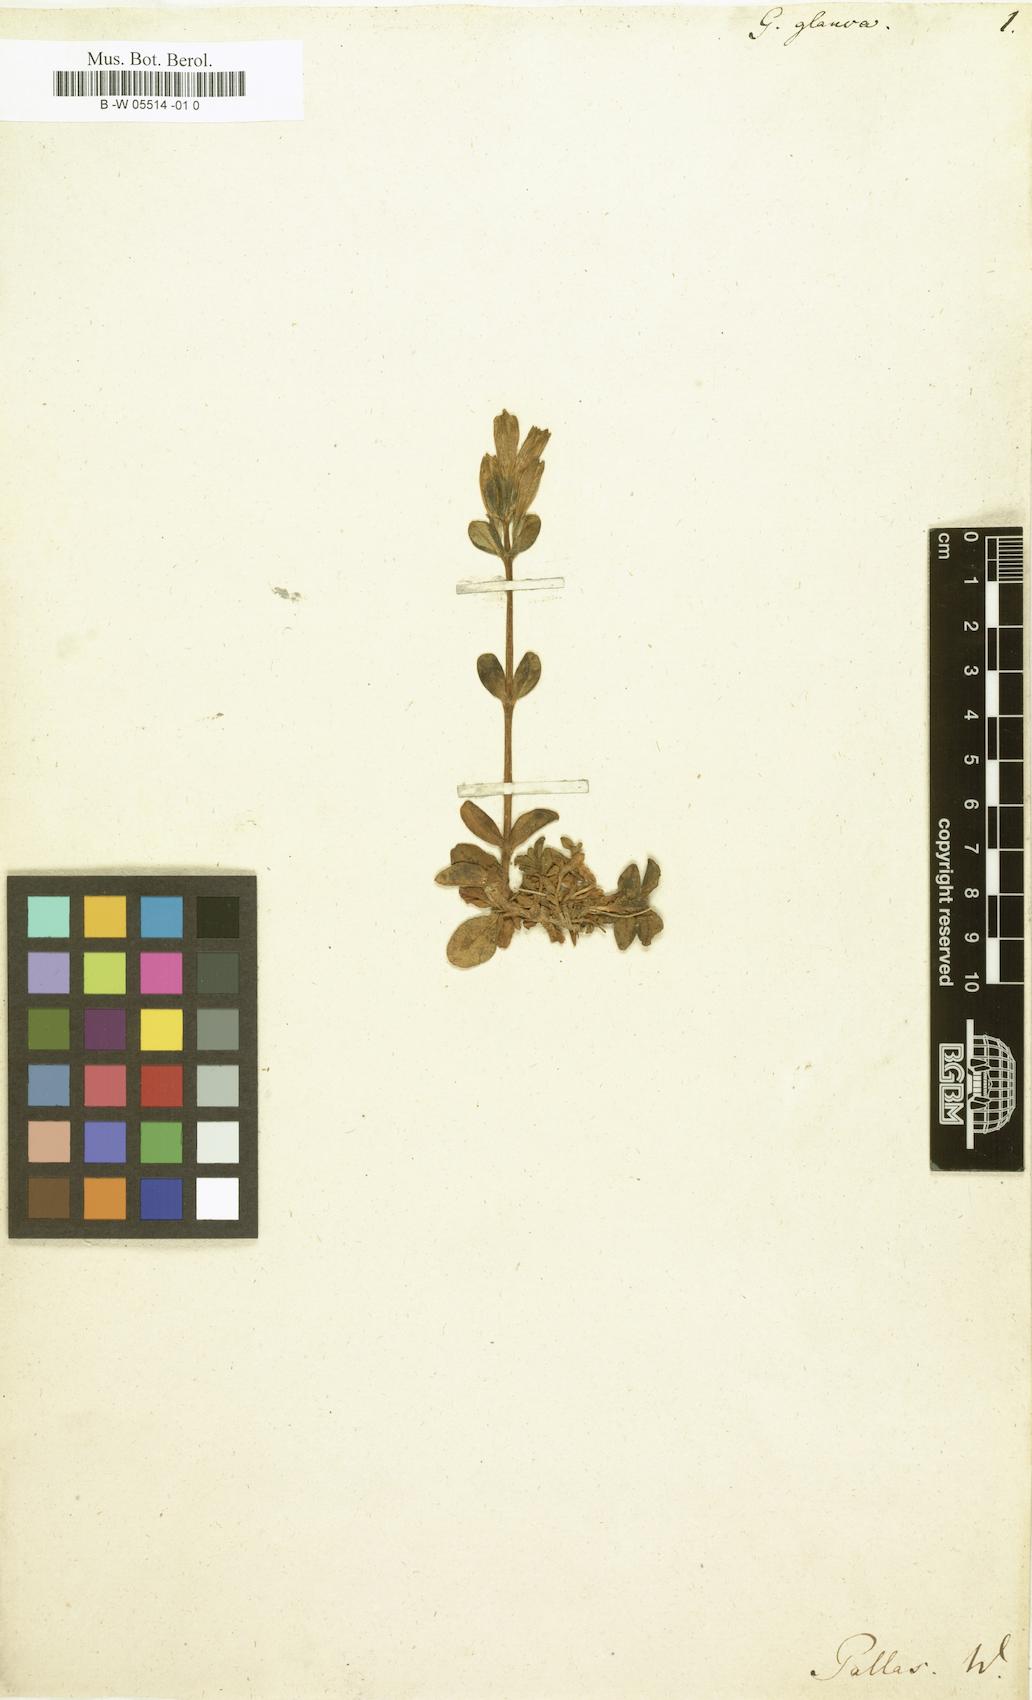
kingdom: Plantae
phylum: Tracheophyta
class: Magnoliopsida
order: Gentianales
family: Gentianaceae
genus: Gentiana
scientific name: Gentiana glauca
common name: Alpine gentian
